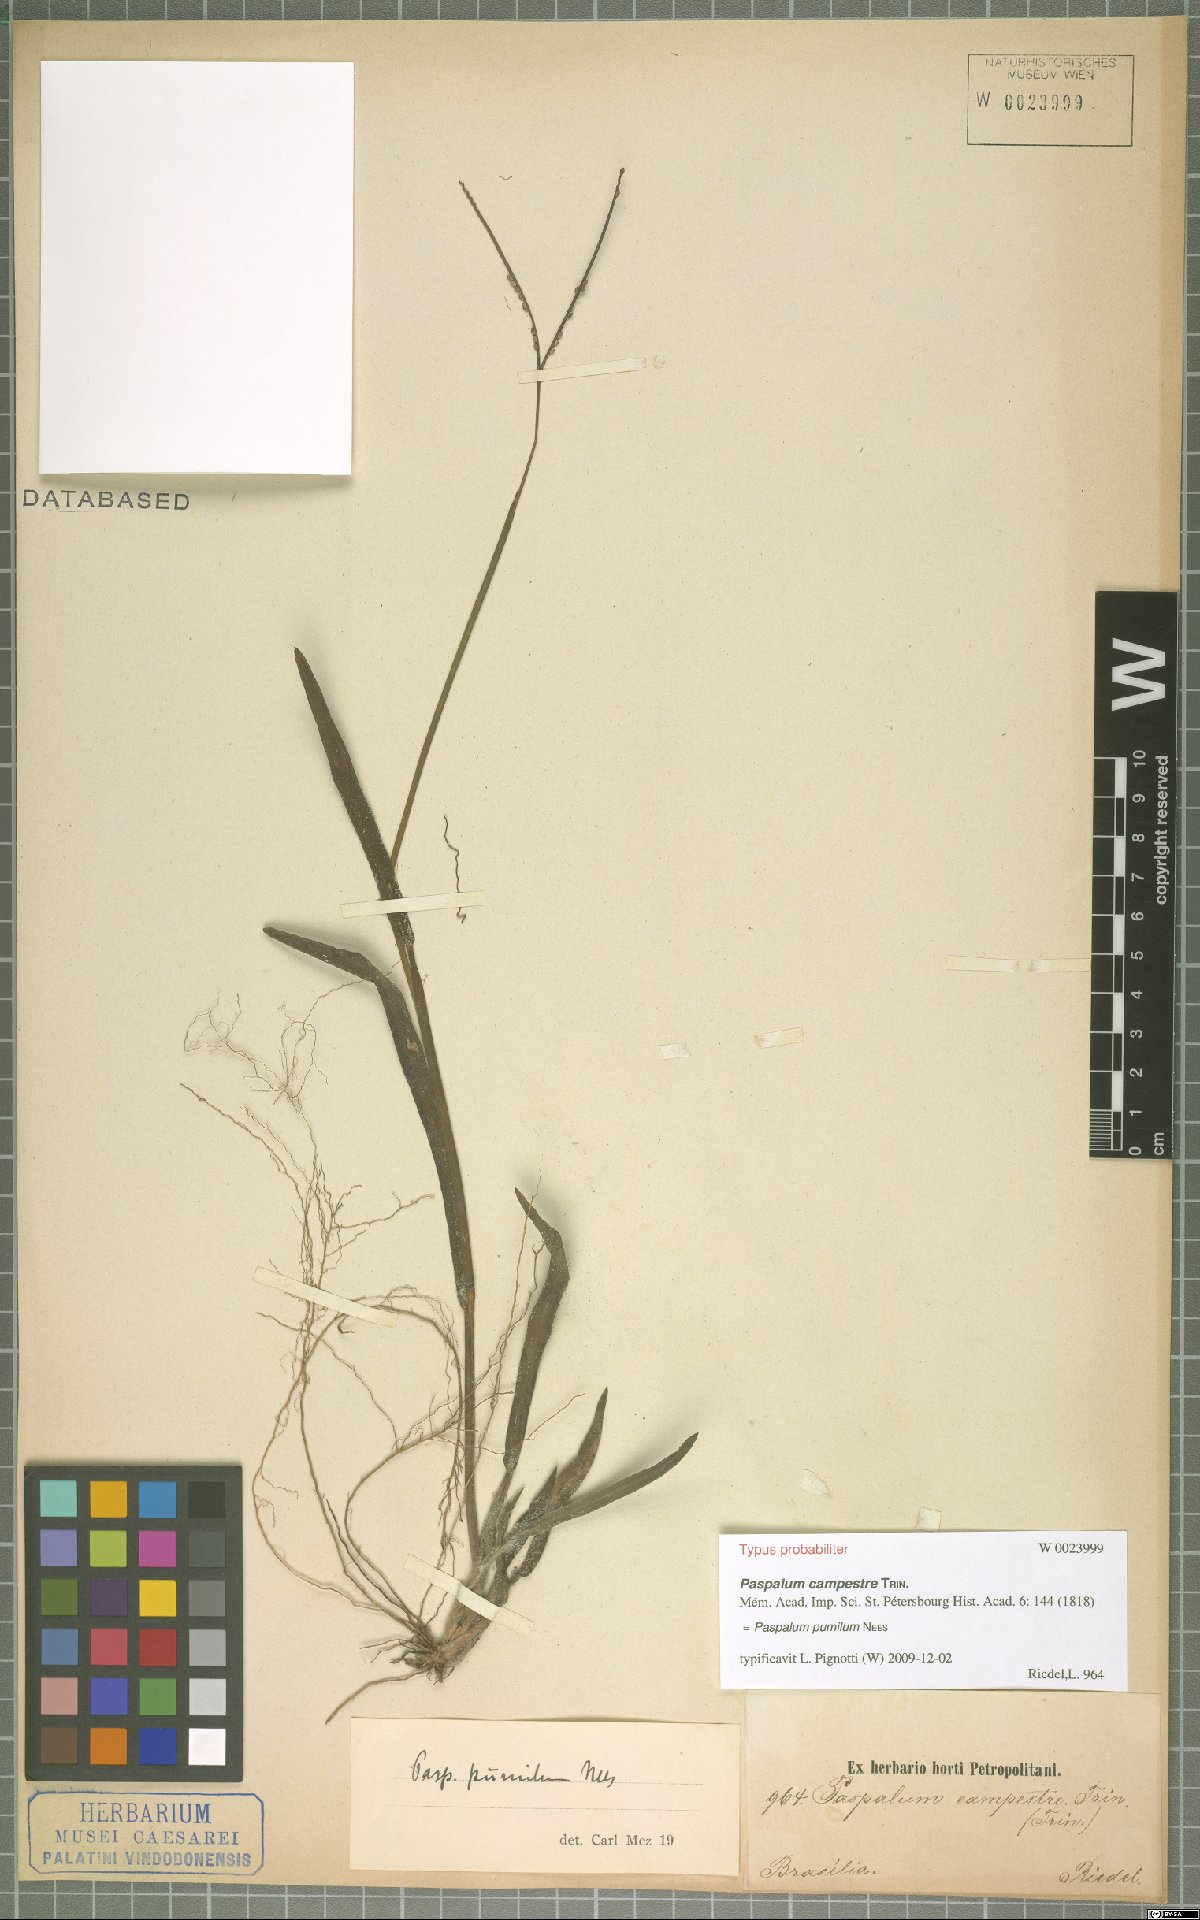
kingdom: Plantae
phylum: Tracheophyta
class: Liliopsida
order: Poales
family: Poaceae
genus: Paspalum
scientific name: Paspalum pumilum
